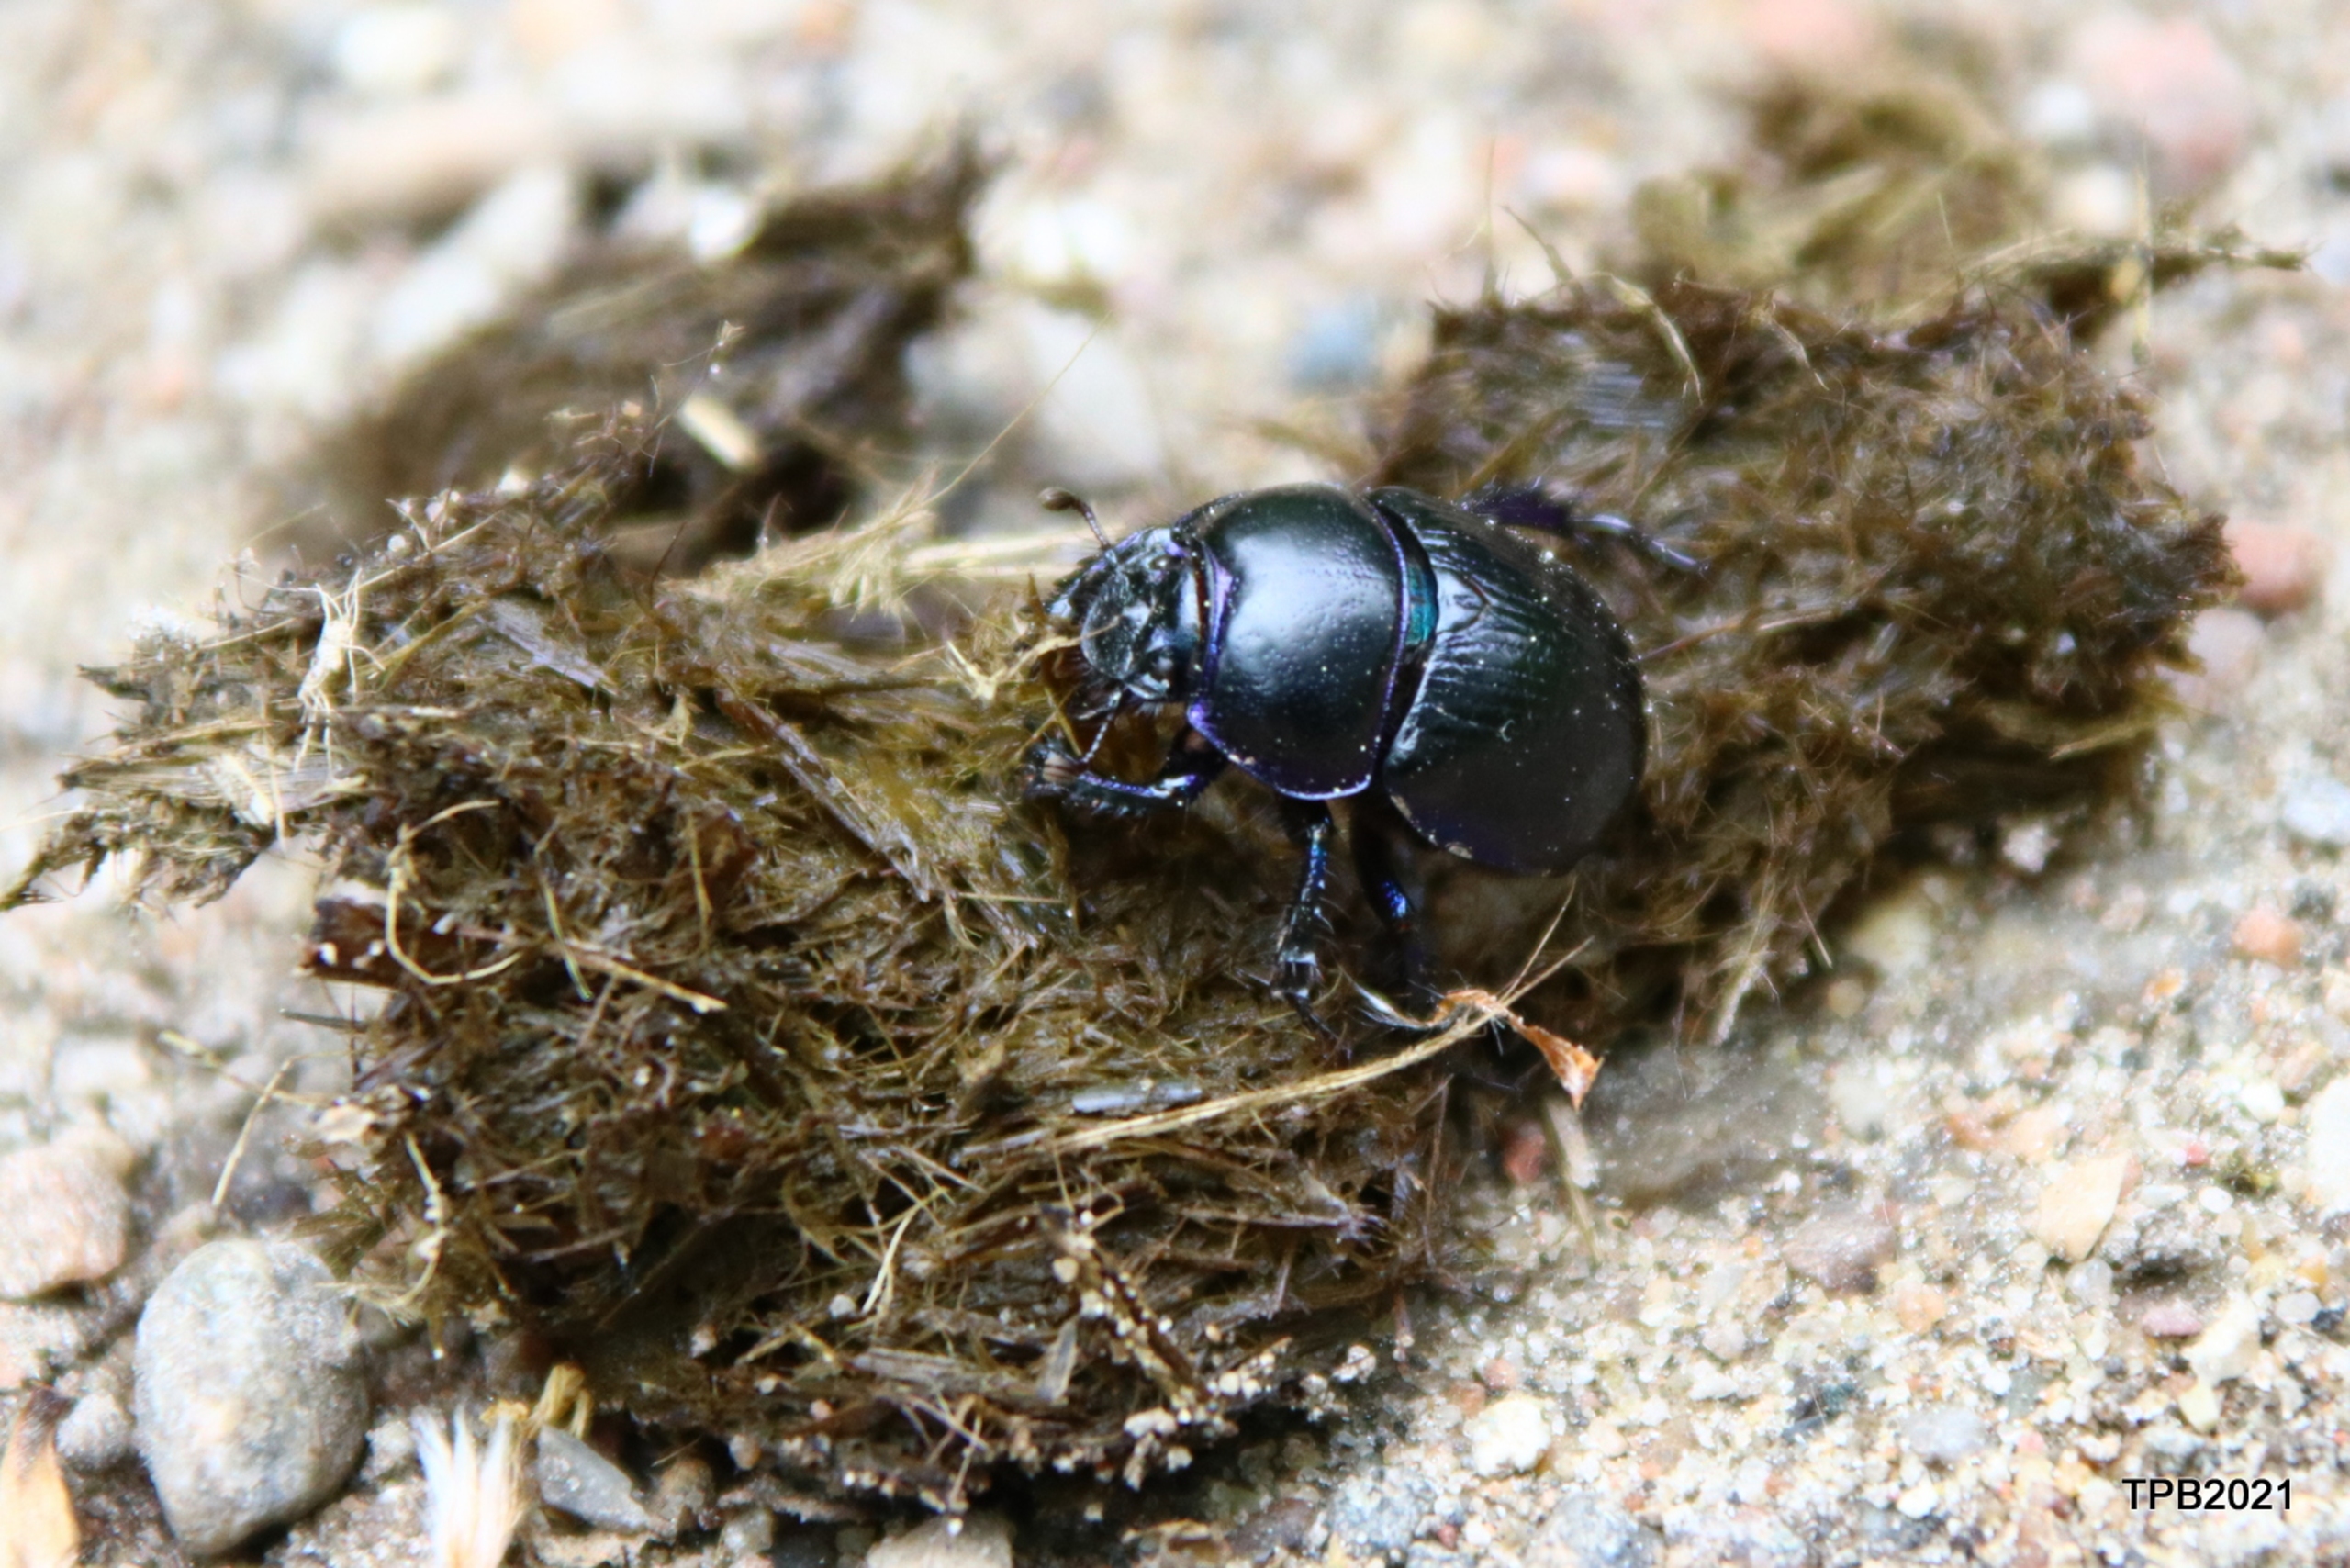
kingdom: Animalia
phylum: Arthropoda
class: Insecta
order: Coleoptera
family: Geotrupidae
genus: Anoplotrupes
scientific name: Anoplotrupes stercorosus
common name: Skovskarnbasse
